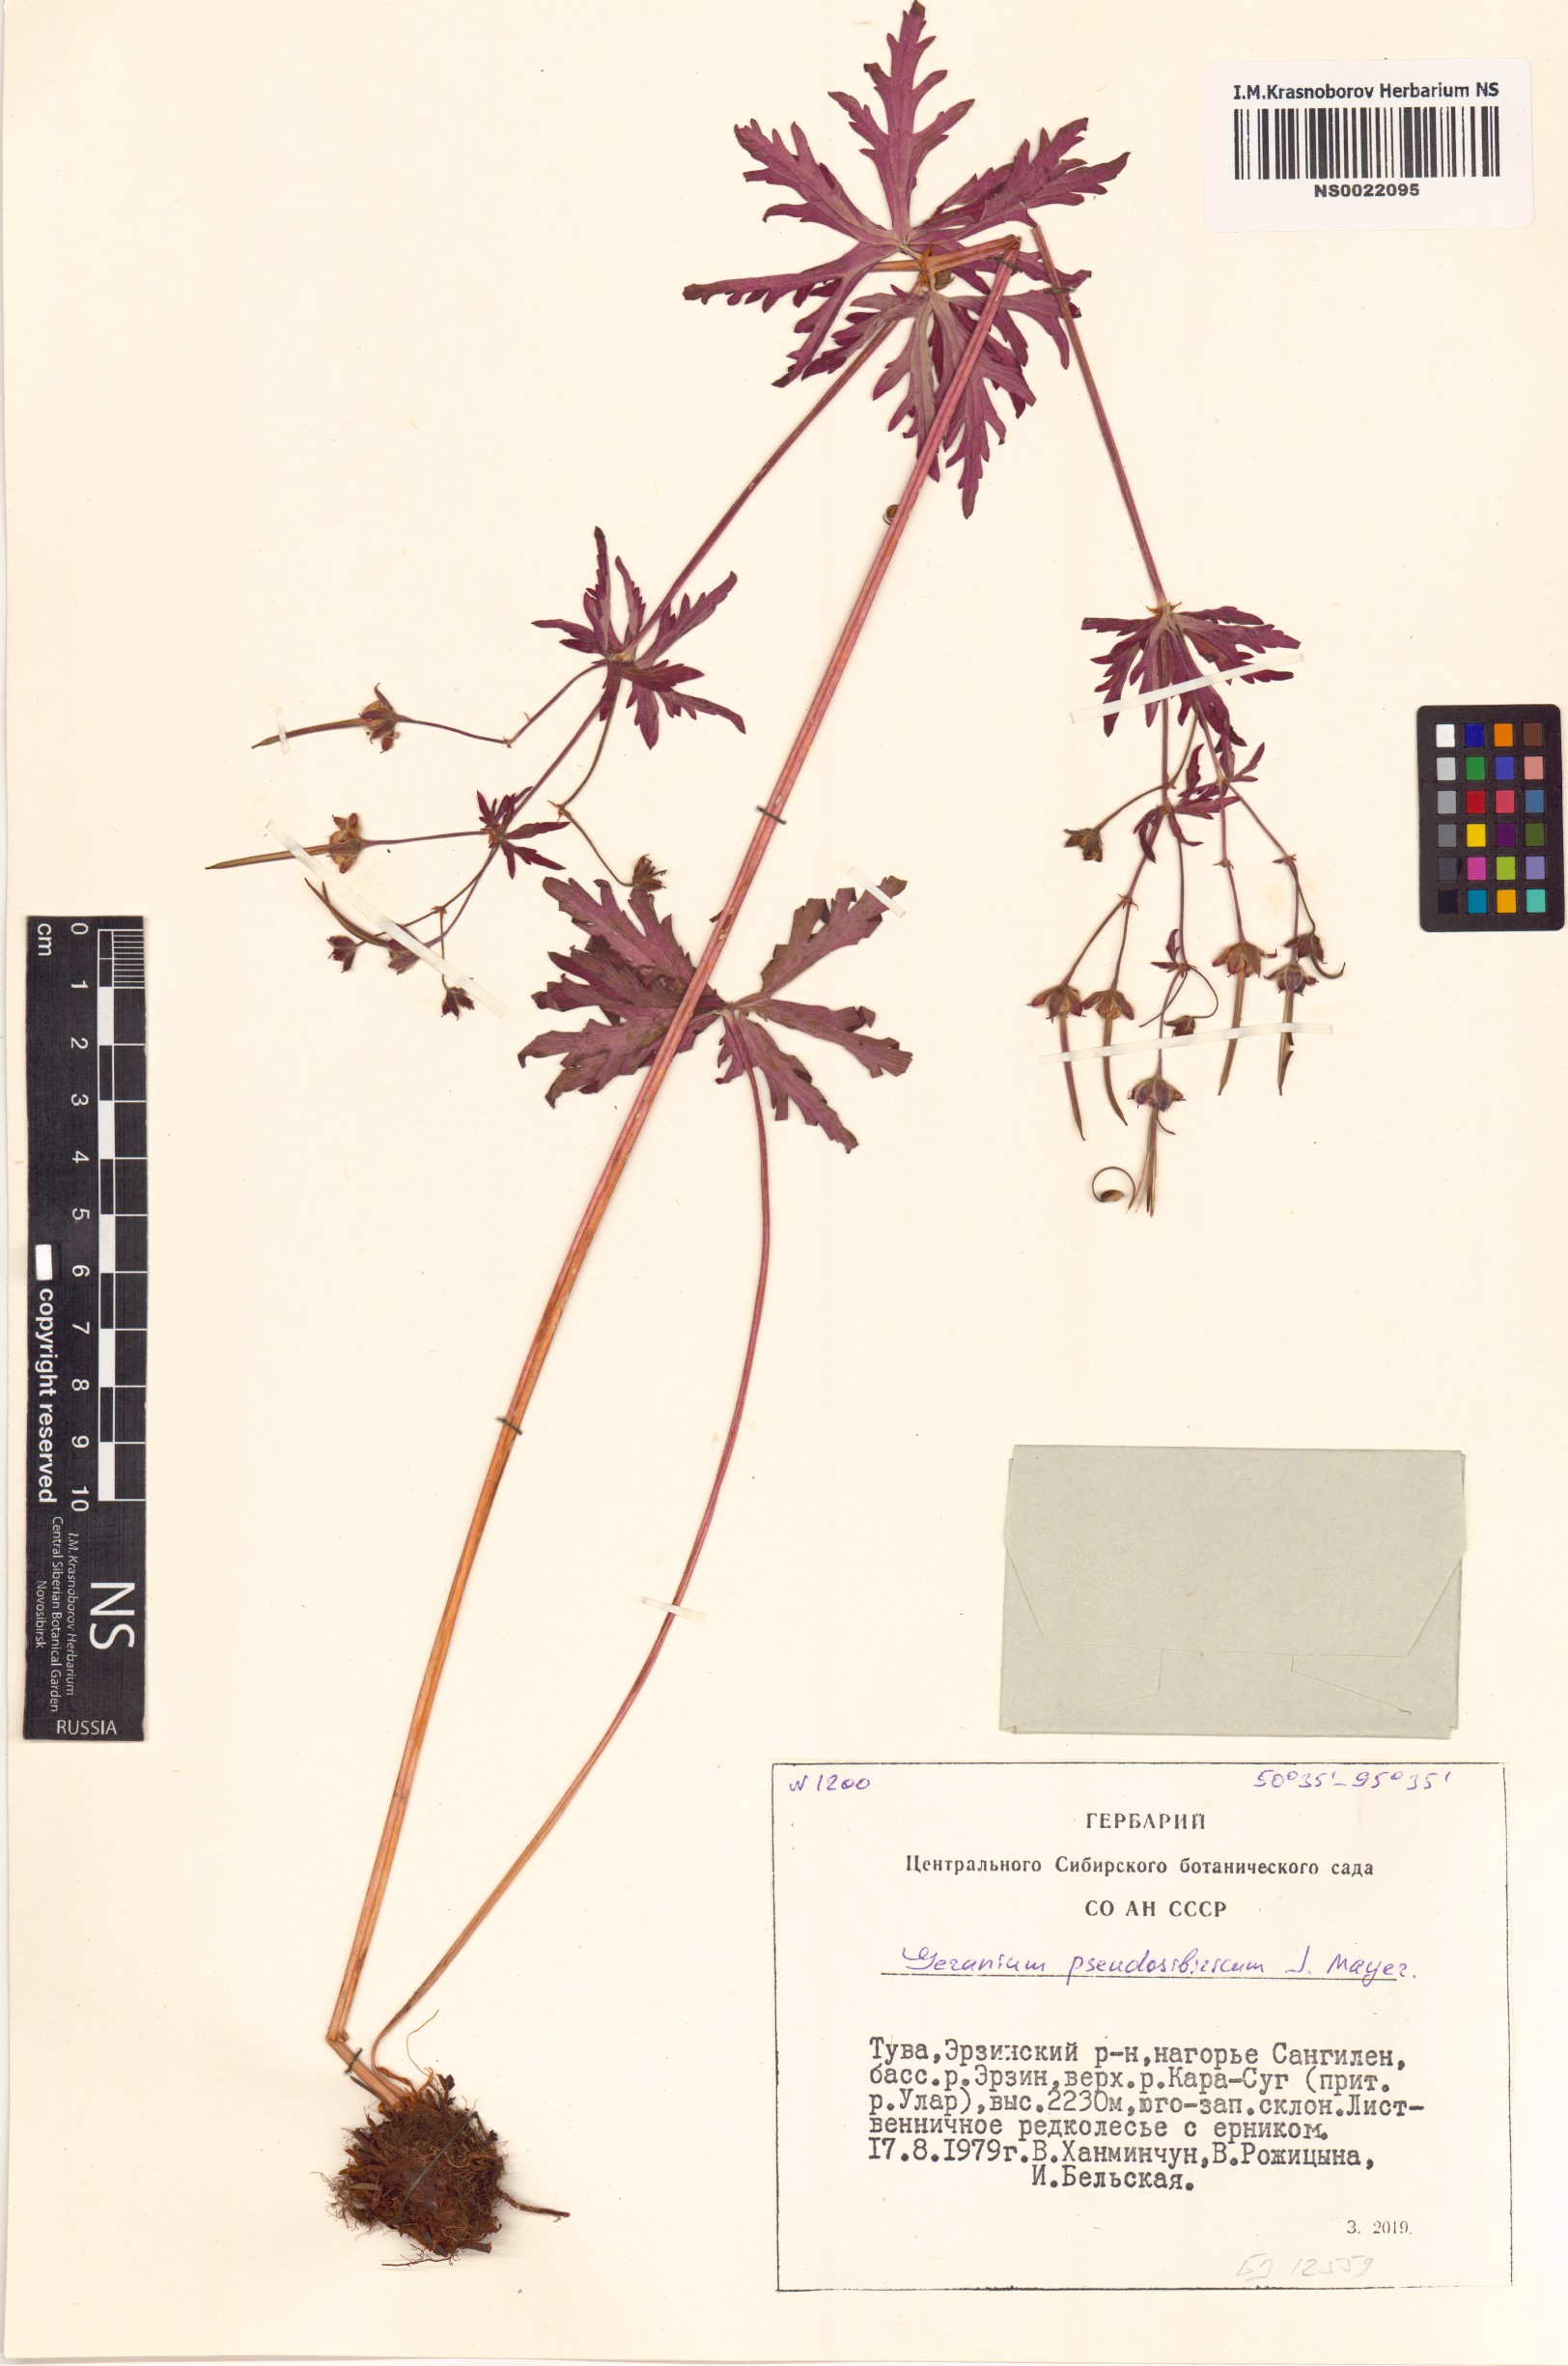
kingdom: Plantae
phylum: Tracheophyta
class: Magnoliopsida
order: Geraniales
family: Geraniaceae
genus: Geranium
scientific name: Geranium pseudosibiricum
